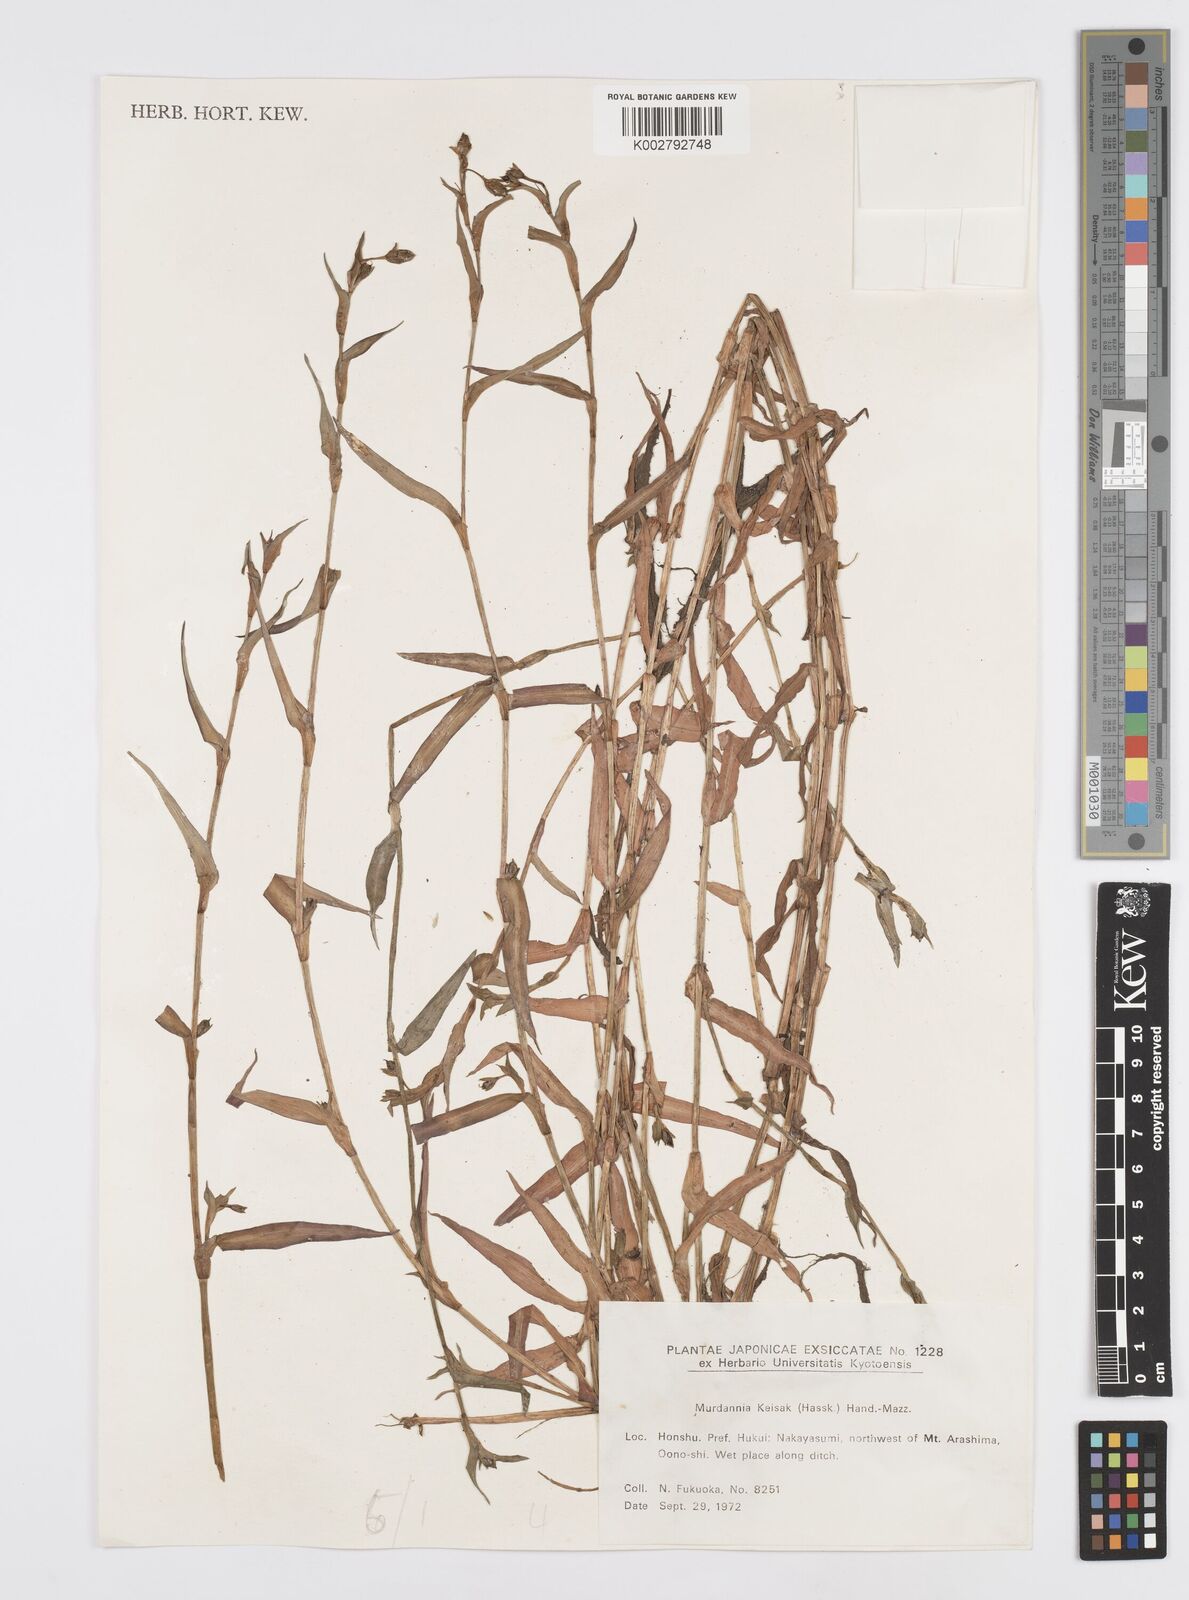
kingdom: Plantae
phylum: Tracheophyta
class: Liliopsida
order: Commelinales
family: Commelinaceae
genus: Murdannia
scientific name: Murdannia keisak
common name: Wartremoving herb
